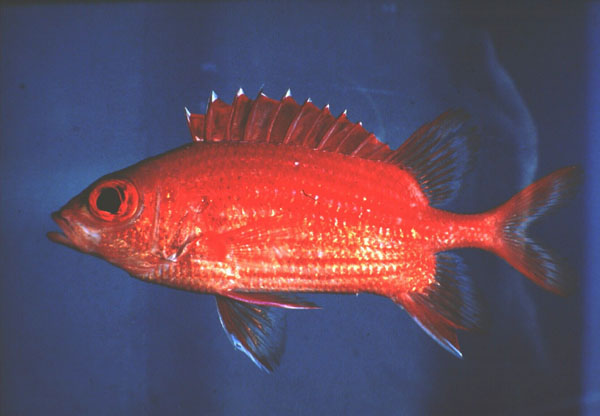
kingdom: Animalia
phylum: Chordata
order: Beryciformes
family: Holocentridae
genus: Sargocentron
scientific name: Sargocentron tiereoides
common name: Pink squirrelfish
